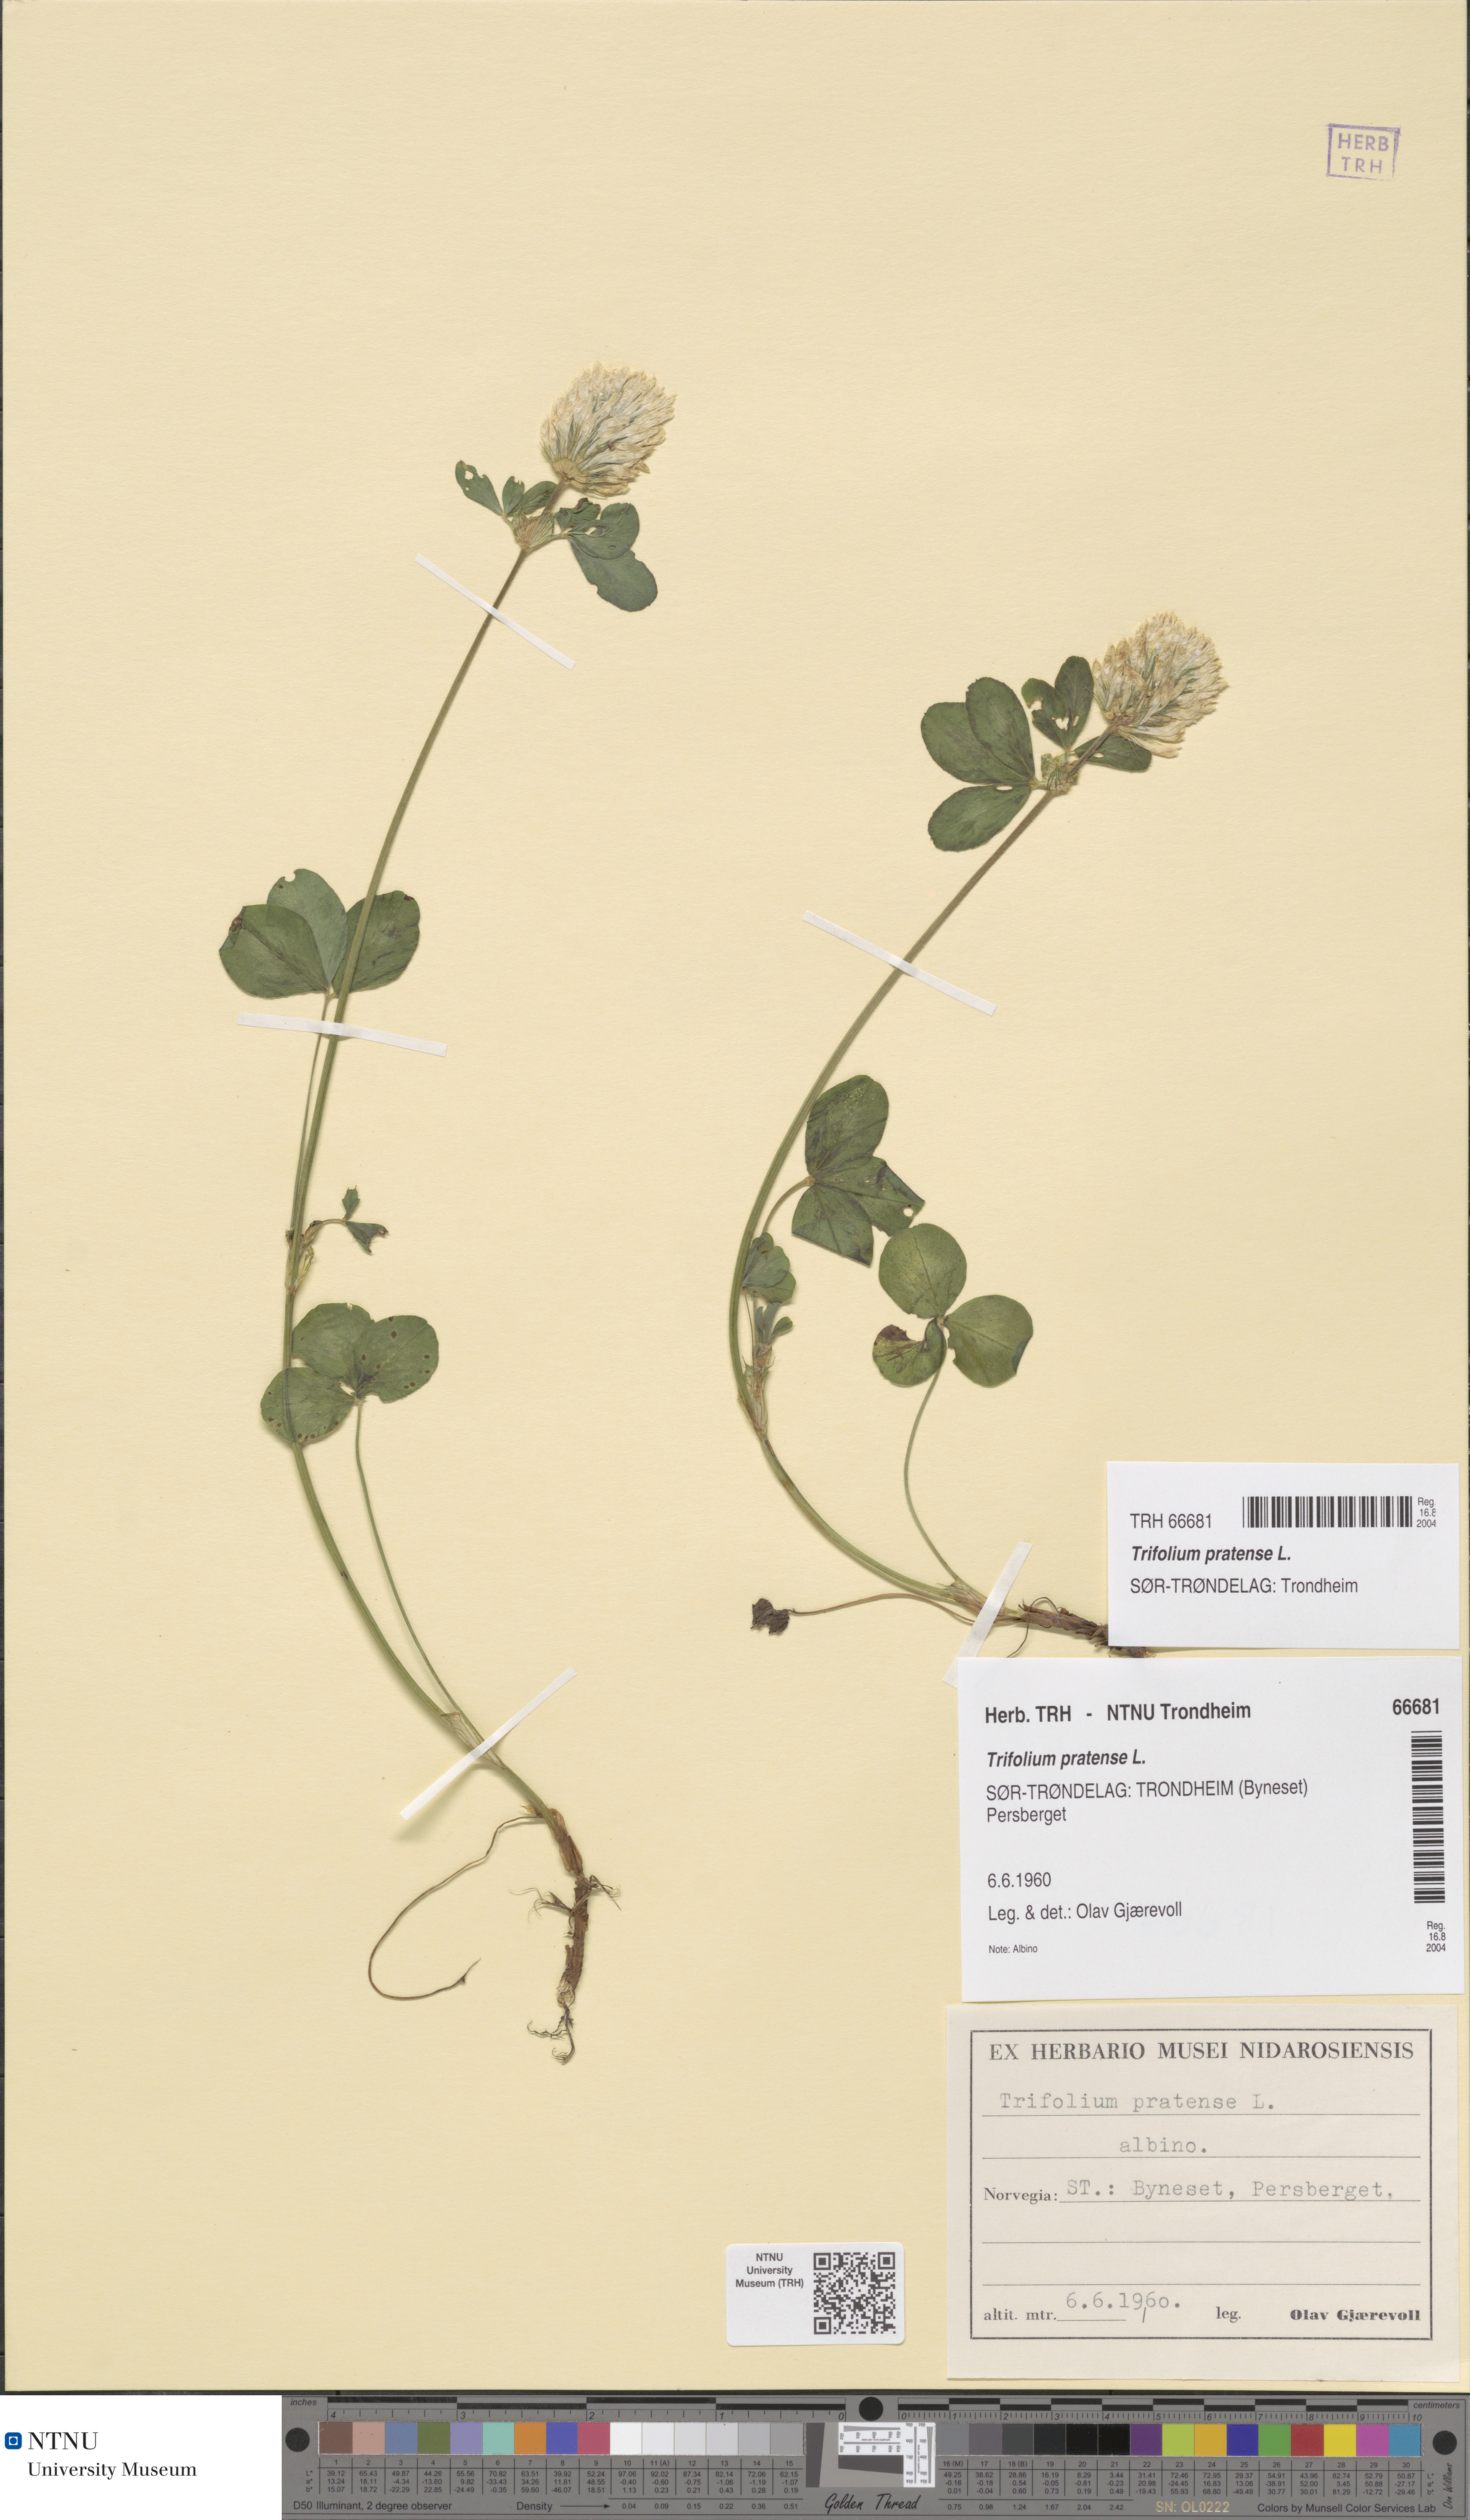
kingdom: Plantae
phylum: Tracheophyta
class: Magnoliopsida
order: Fabales
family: Fabaceae
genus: Trifolium
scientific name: Trifolium pratense
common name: Red clover
